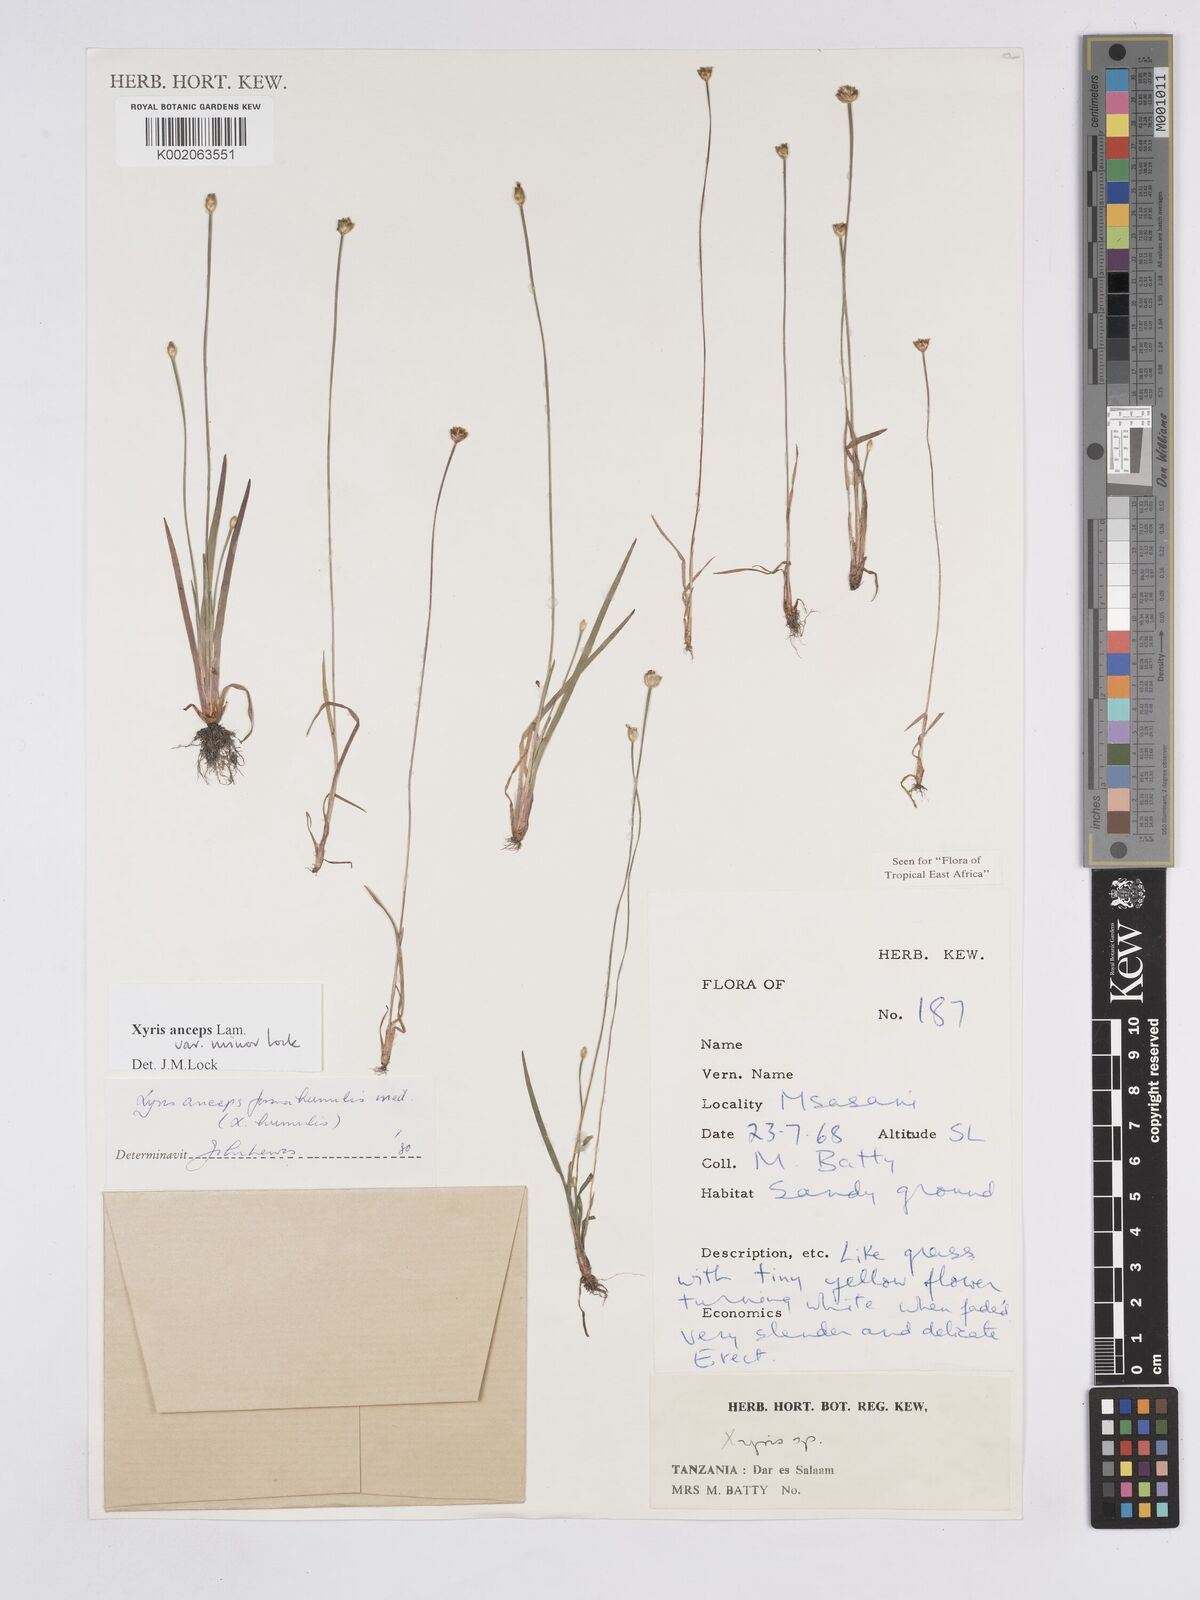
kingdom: Plantae
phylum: Tracheophyta
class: Liliopsida
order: Poales
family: Xyridaceae
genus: Xyris
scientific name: Xyris anceps
